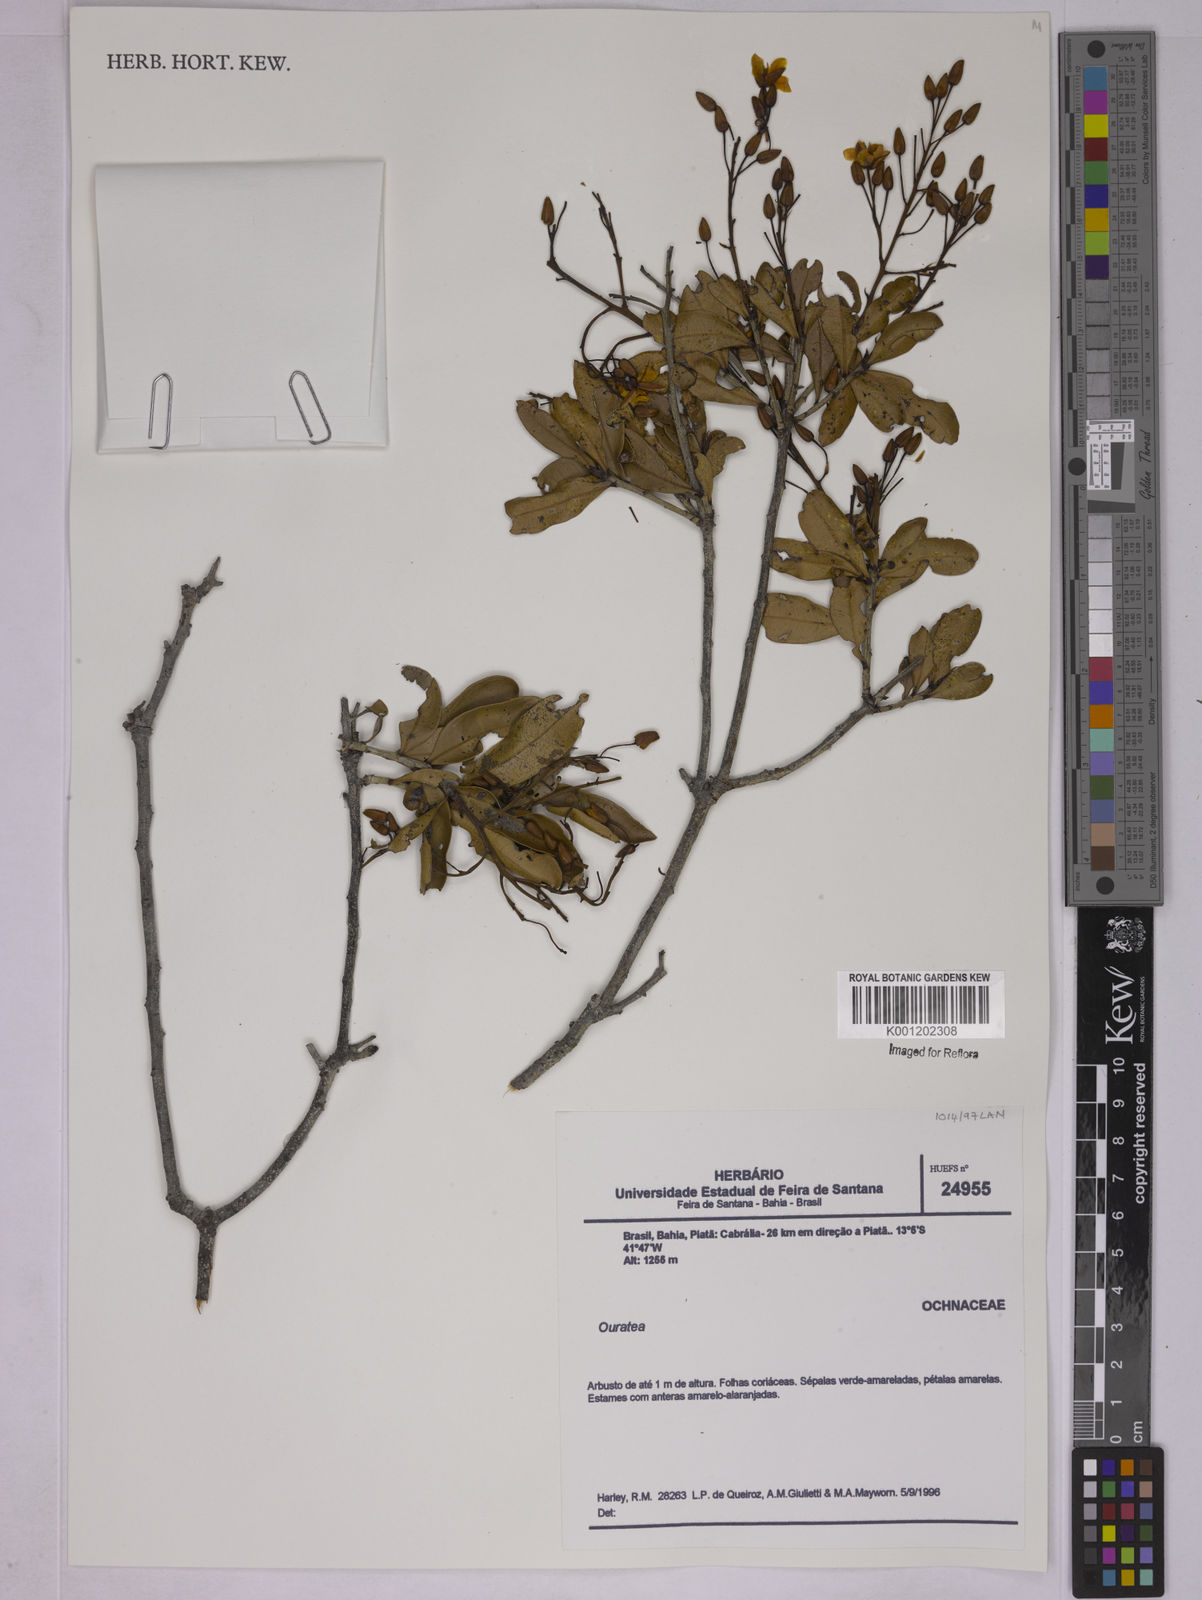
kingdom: Plantae
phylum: Tracheophyta
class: Magnoliopsida
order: Malpighiales
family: Ochnaceae
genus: Ouratea
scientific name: Ouratea
